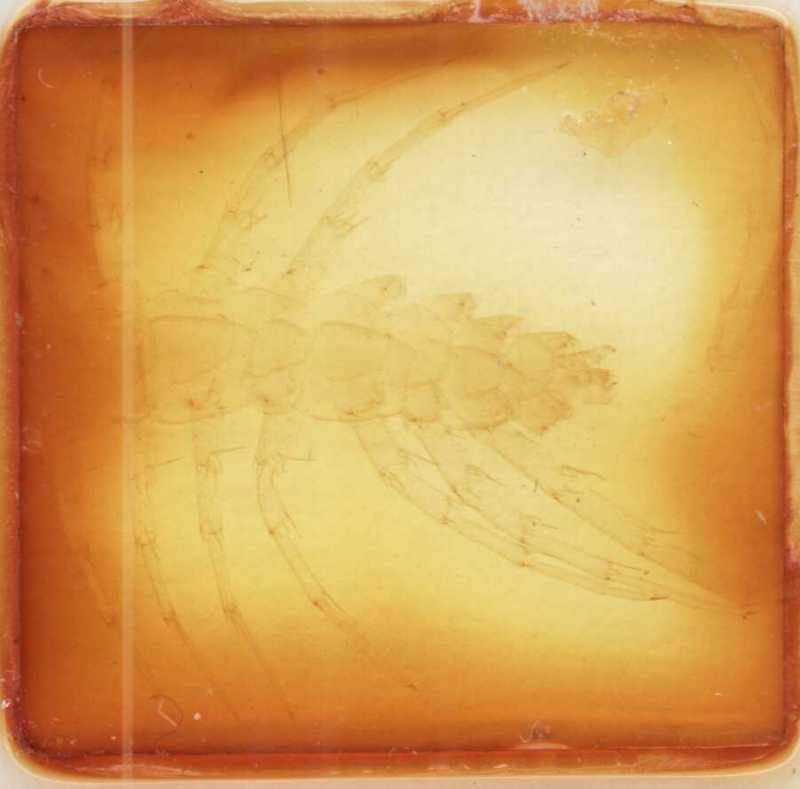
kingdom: Animalia
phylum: Arthropoda
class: Chilopoda
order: Lithobiomorpha
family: Lithobiidae
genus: Polybothrus
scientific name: Polybothrus obrovensis
